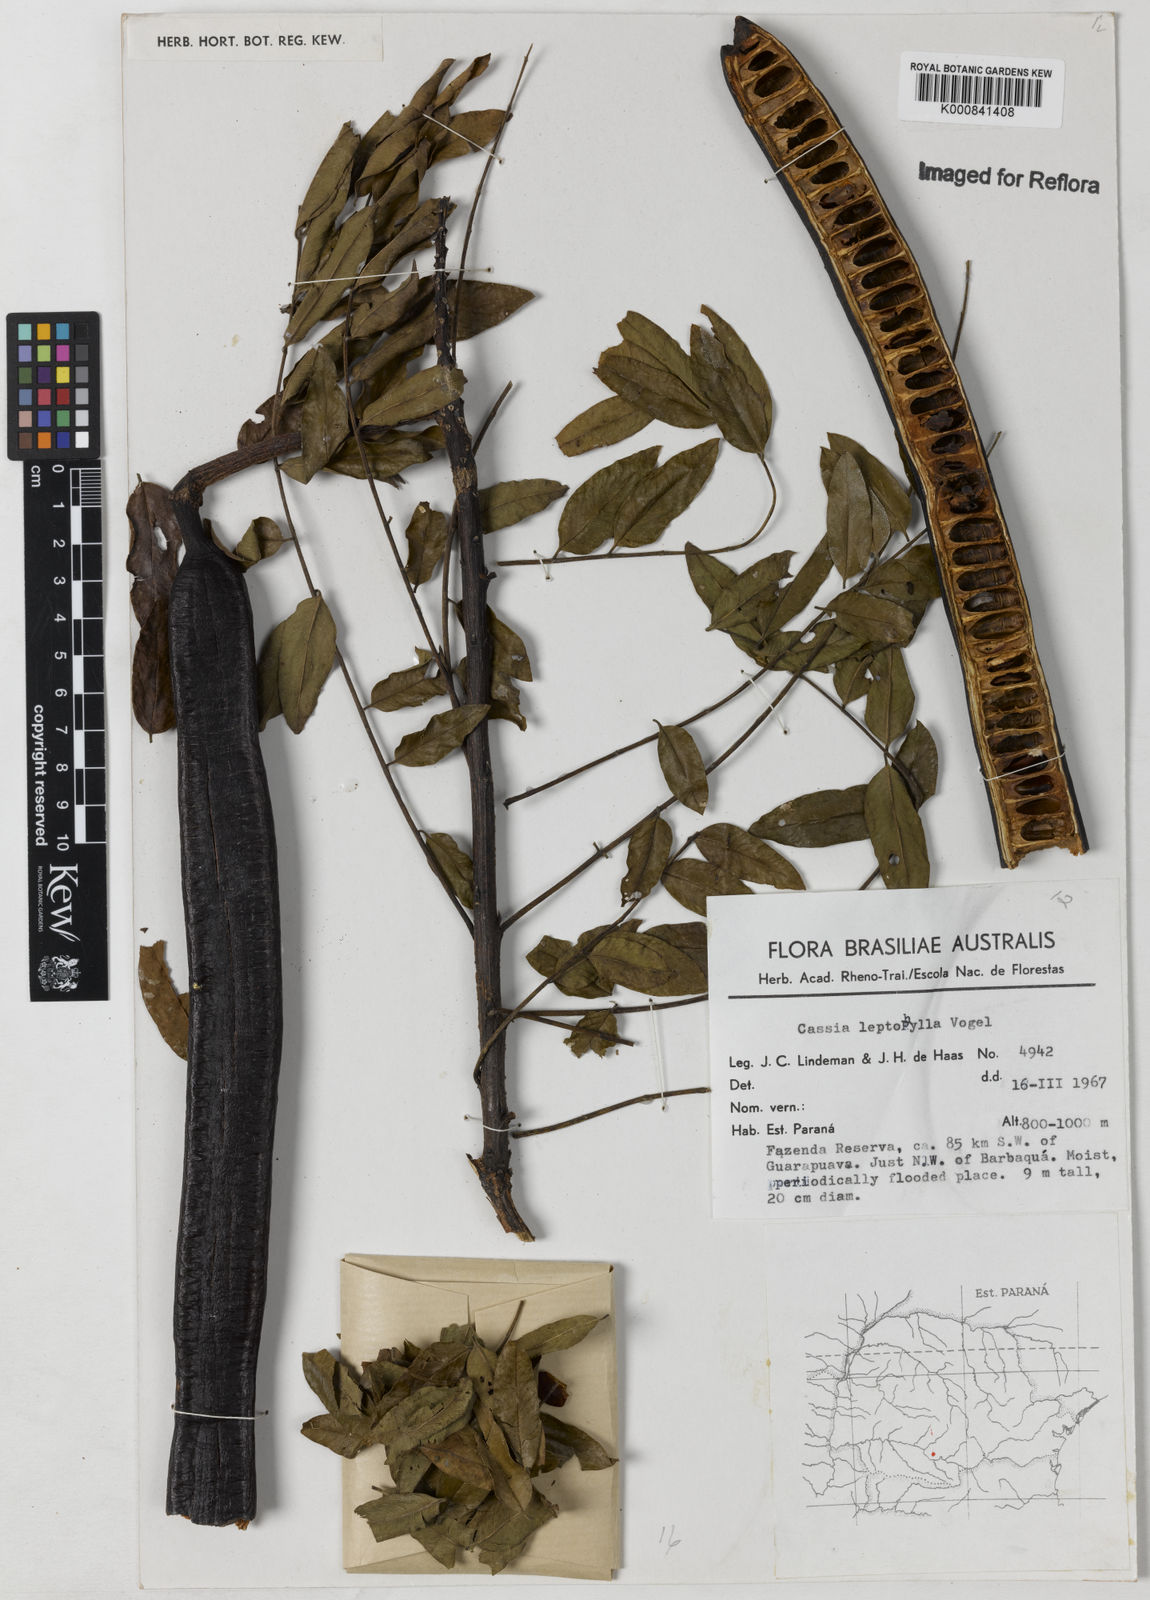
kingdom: Plantae
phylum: Tracheophyta
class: Magnoliopsida
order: Fabales
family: Fabaceae
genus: Cassia
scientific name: Cassia leptophylla
